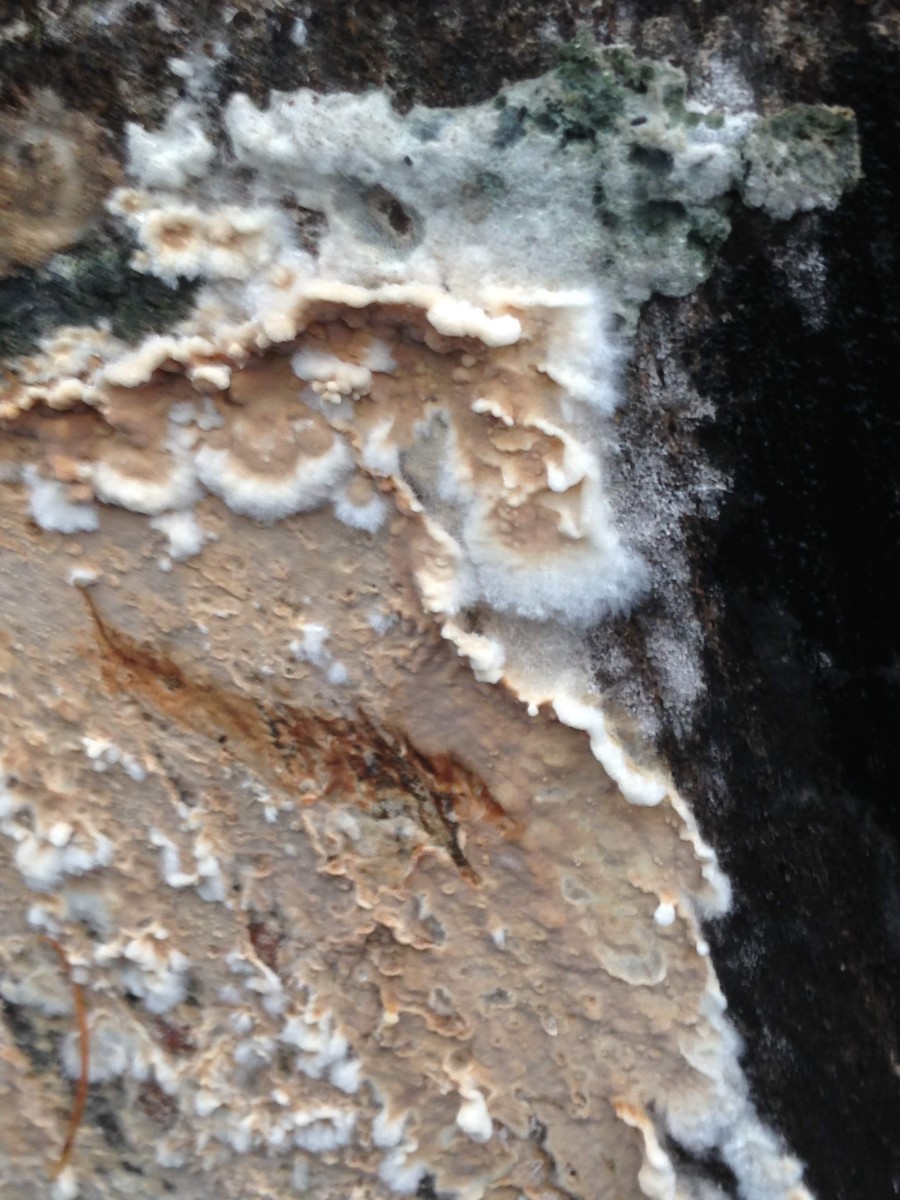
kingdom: Fungi
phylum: Basidiomycota
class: Agaricomycetes
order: Agaricales
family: Physalacriaceae
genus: Cylindrobasidium
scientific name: Cylindrobasidium evolvens
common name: sprækkehinde
